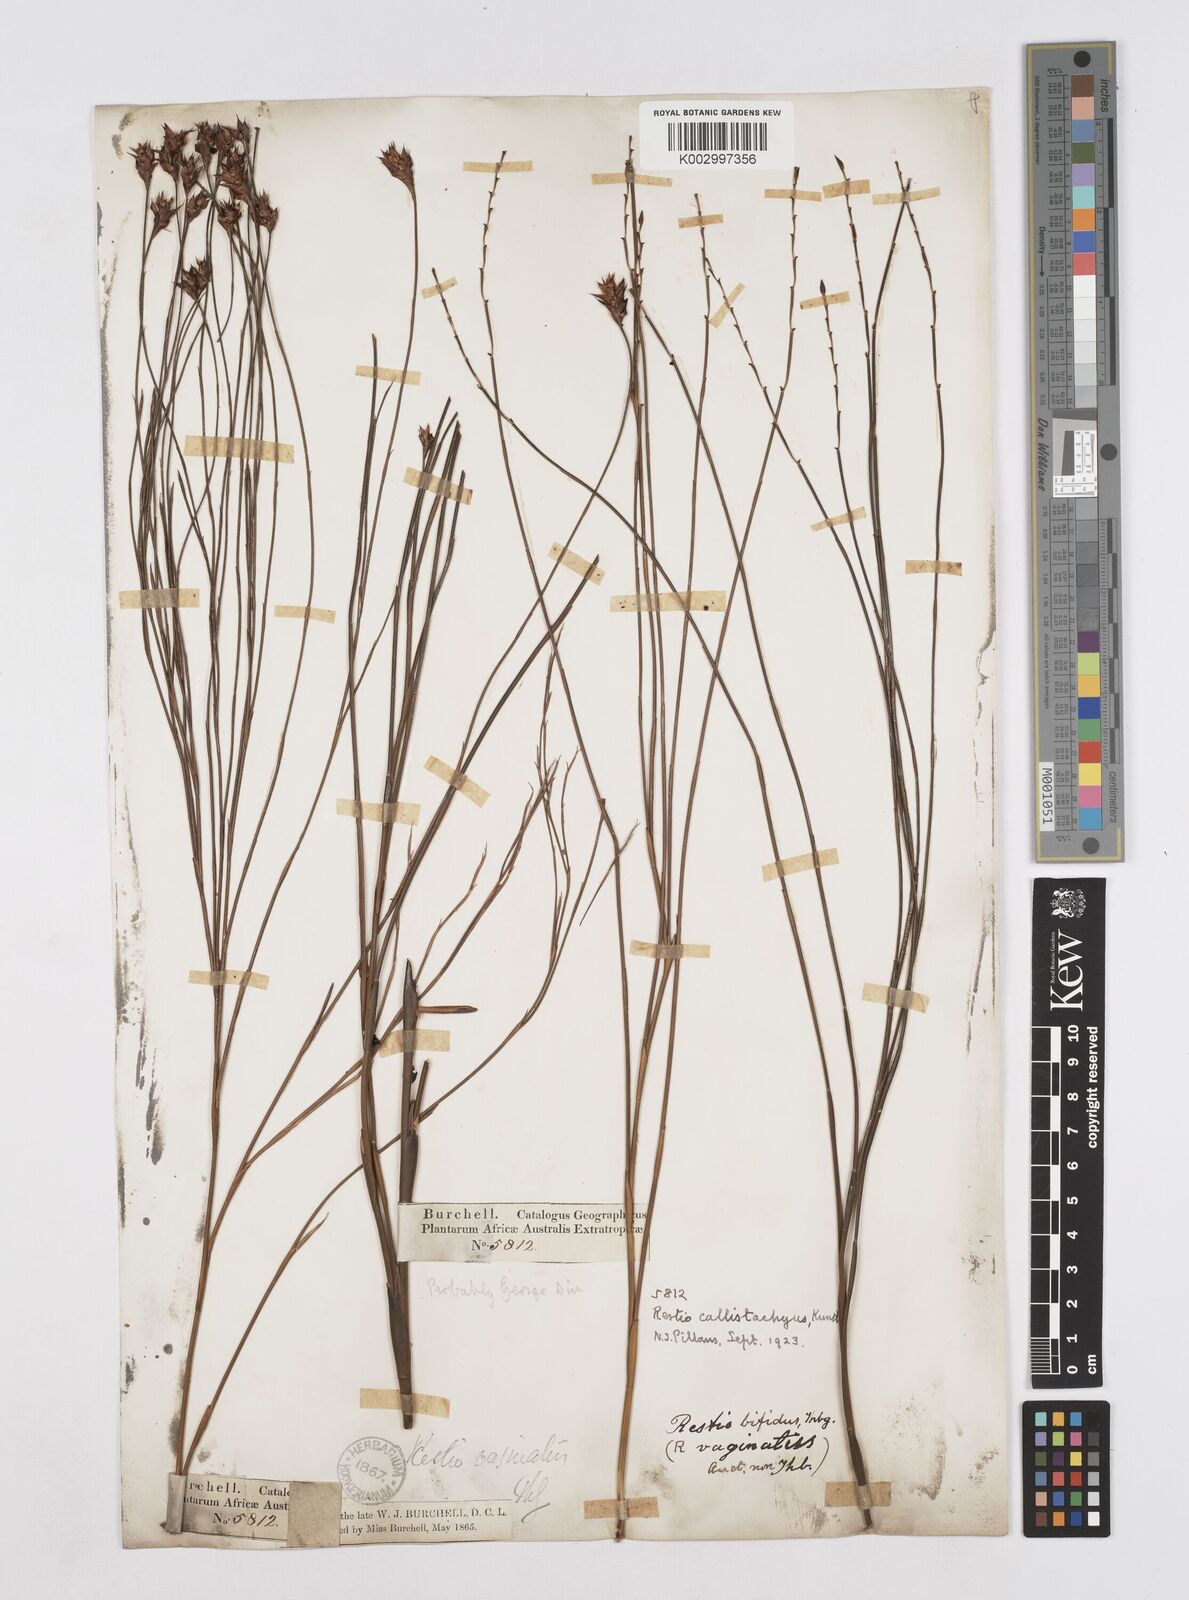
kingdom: Plantae
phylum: Tracheophyta
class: Liliopsida
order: Poales
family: Restionaceae
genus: Platycaulos
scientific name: Platycaulos callistachyus
